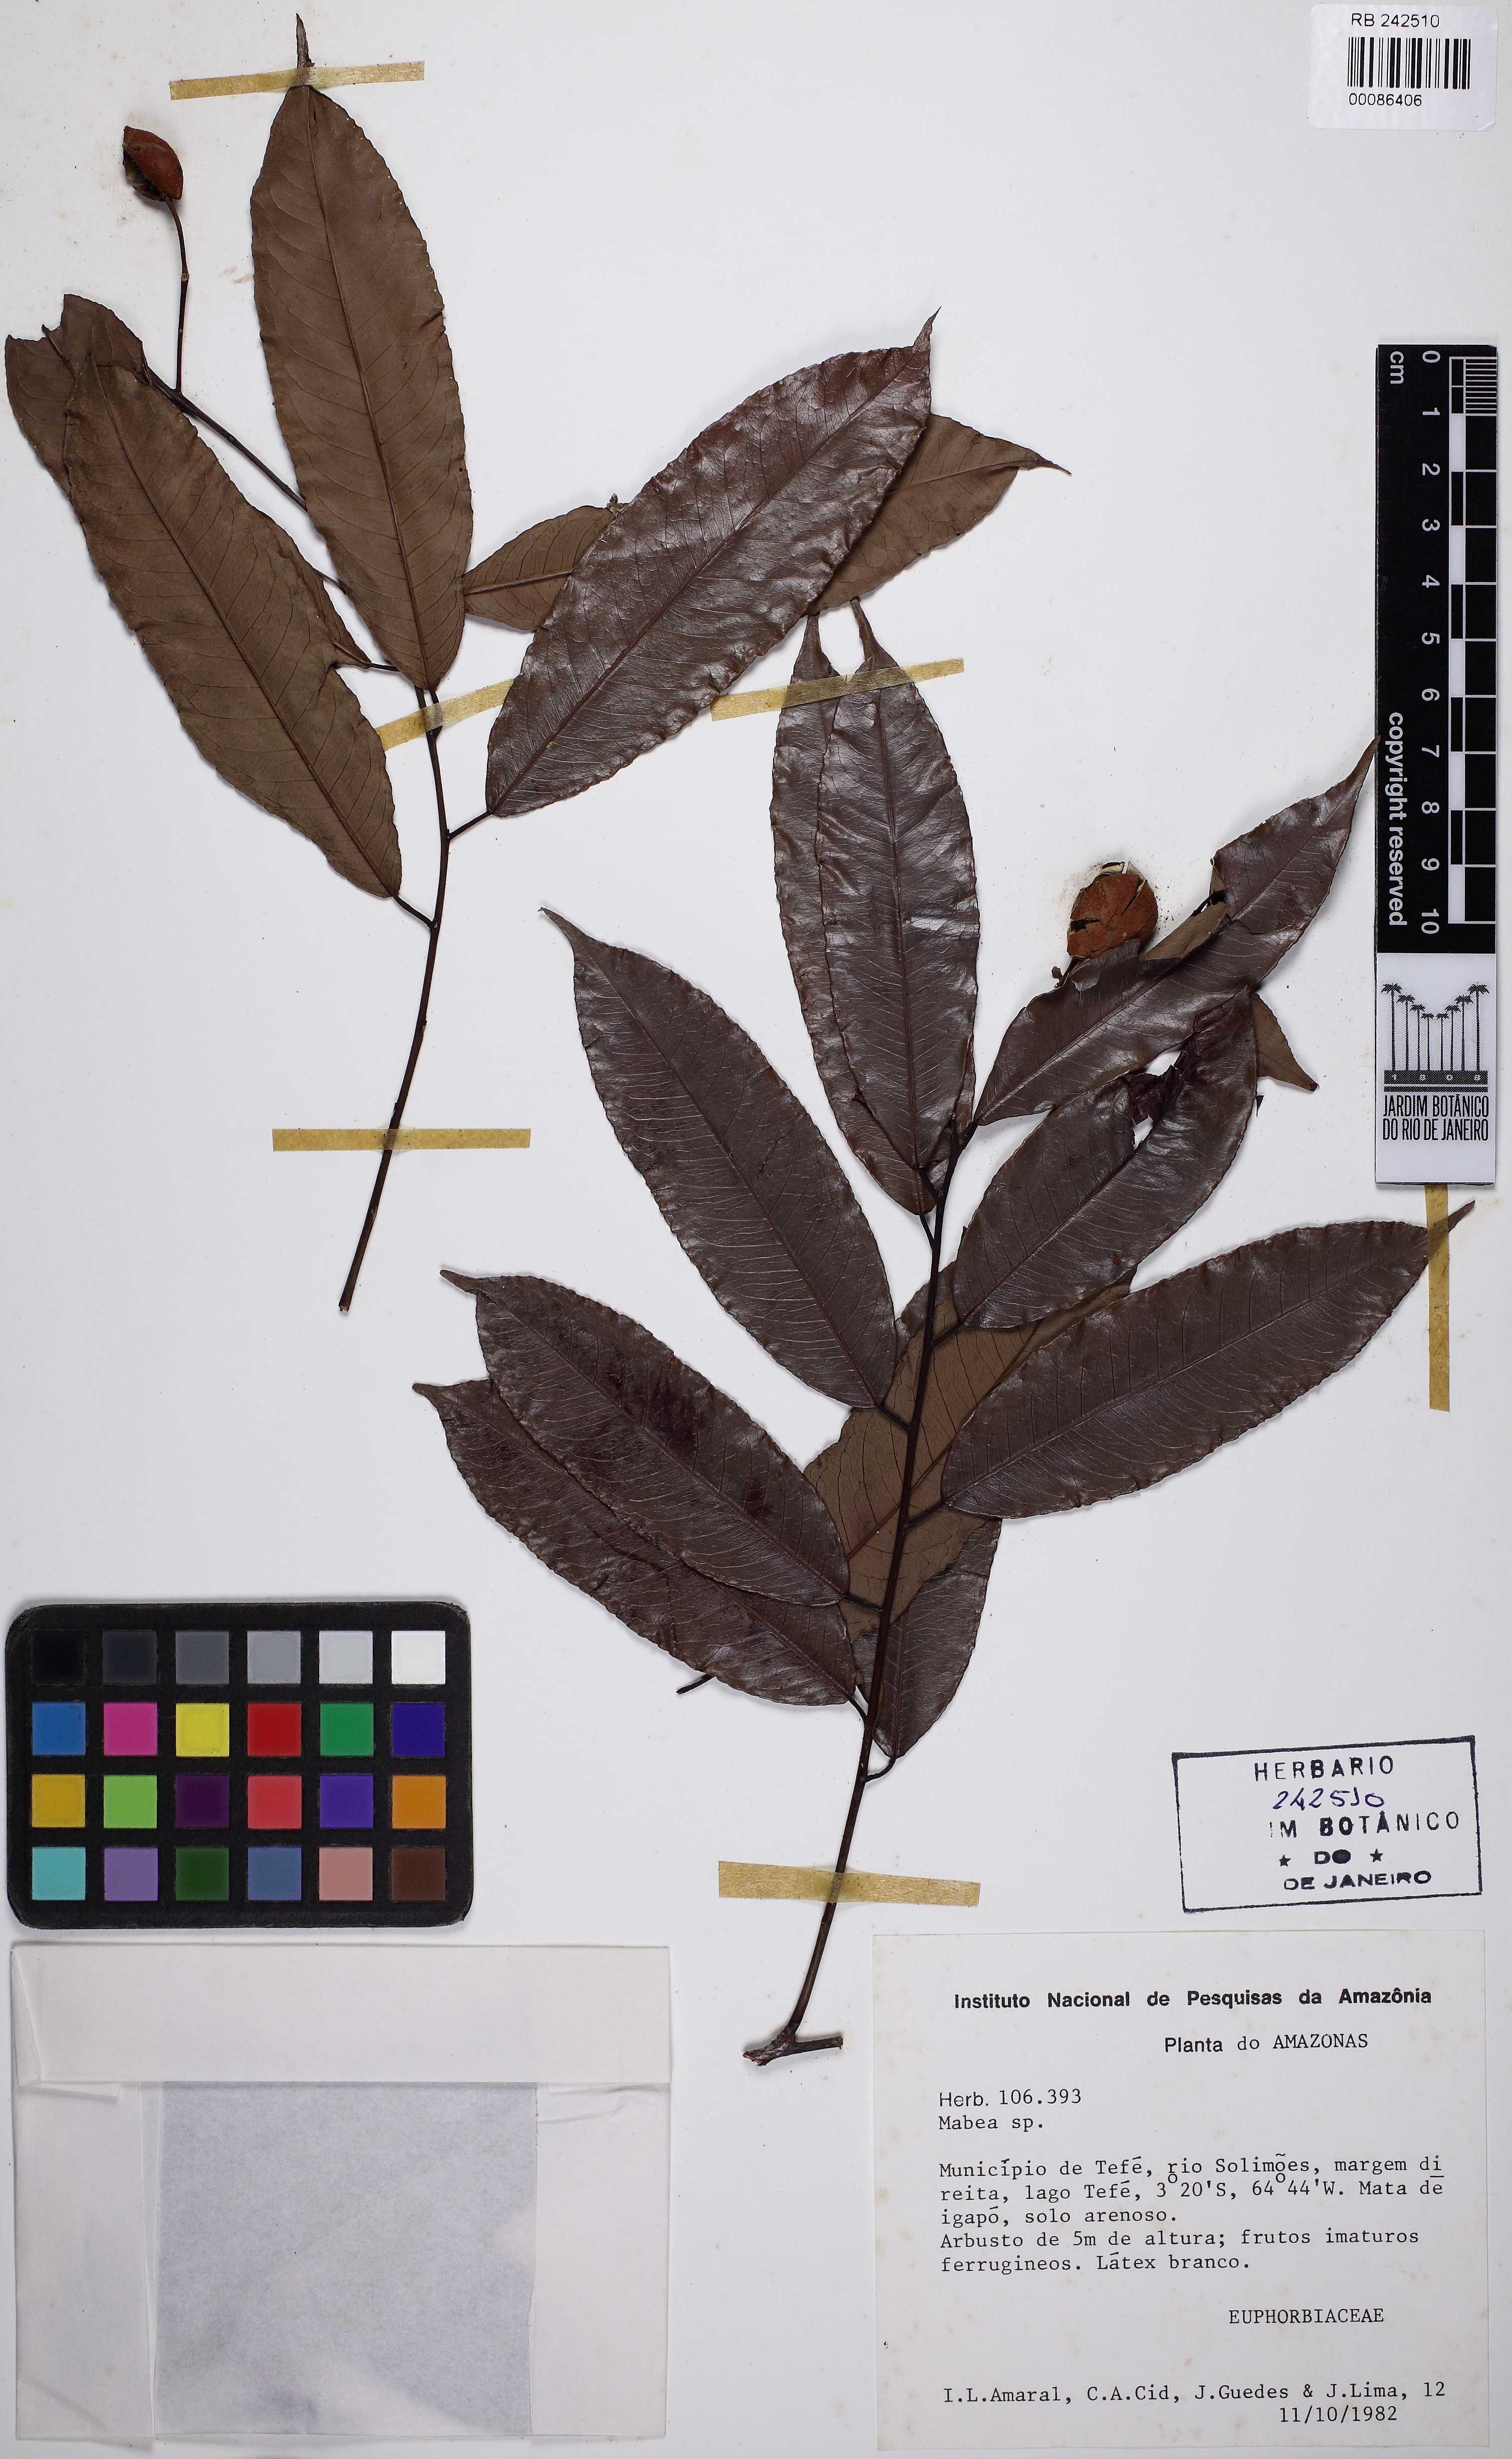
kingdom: Plantae
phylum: Tracheophyta
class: Magnoliopsida
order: Malpighiales
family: Euphorbiaceae
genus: Mabea
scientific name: Mabea
